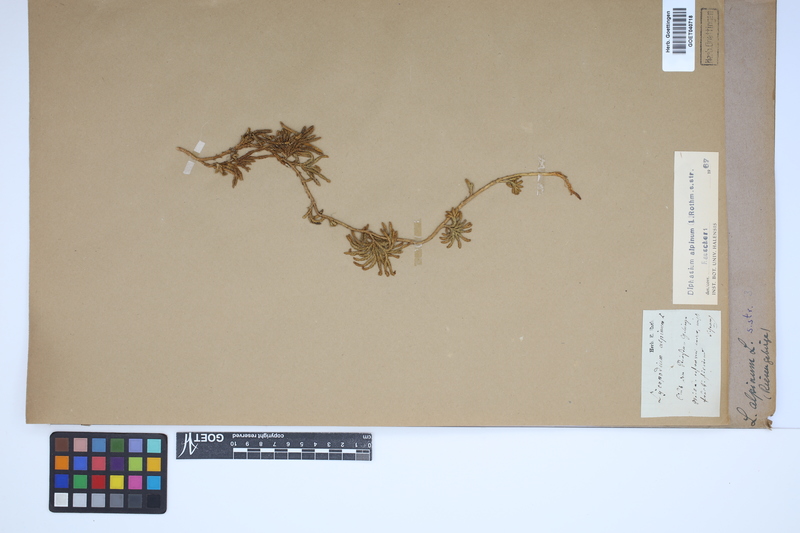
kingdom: Plantae
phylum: Tracheophyta
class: Lycopodiopsida
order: Lycopodiales
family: Lycopodiaceae
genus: Diphasiastrum
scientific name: Diphasiastrum alpinum
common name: Alpine clubmoss
